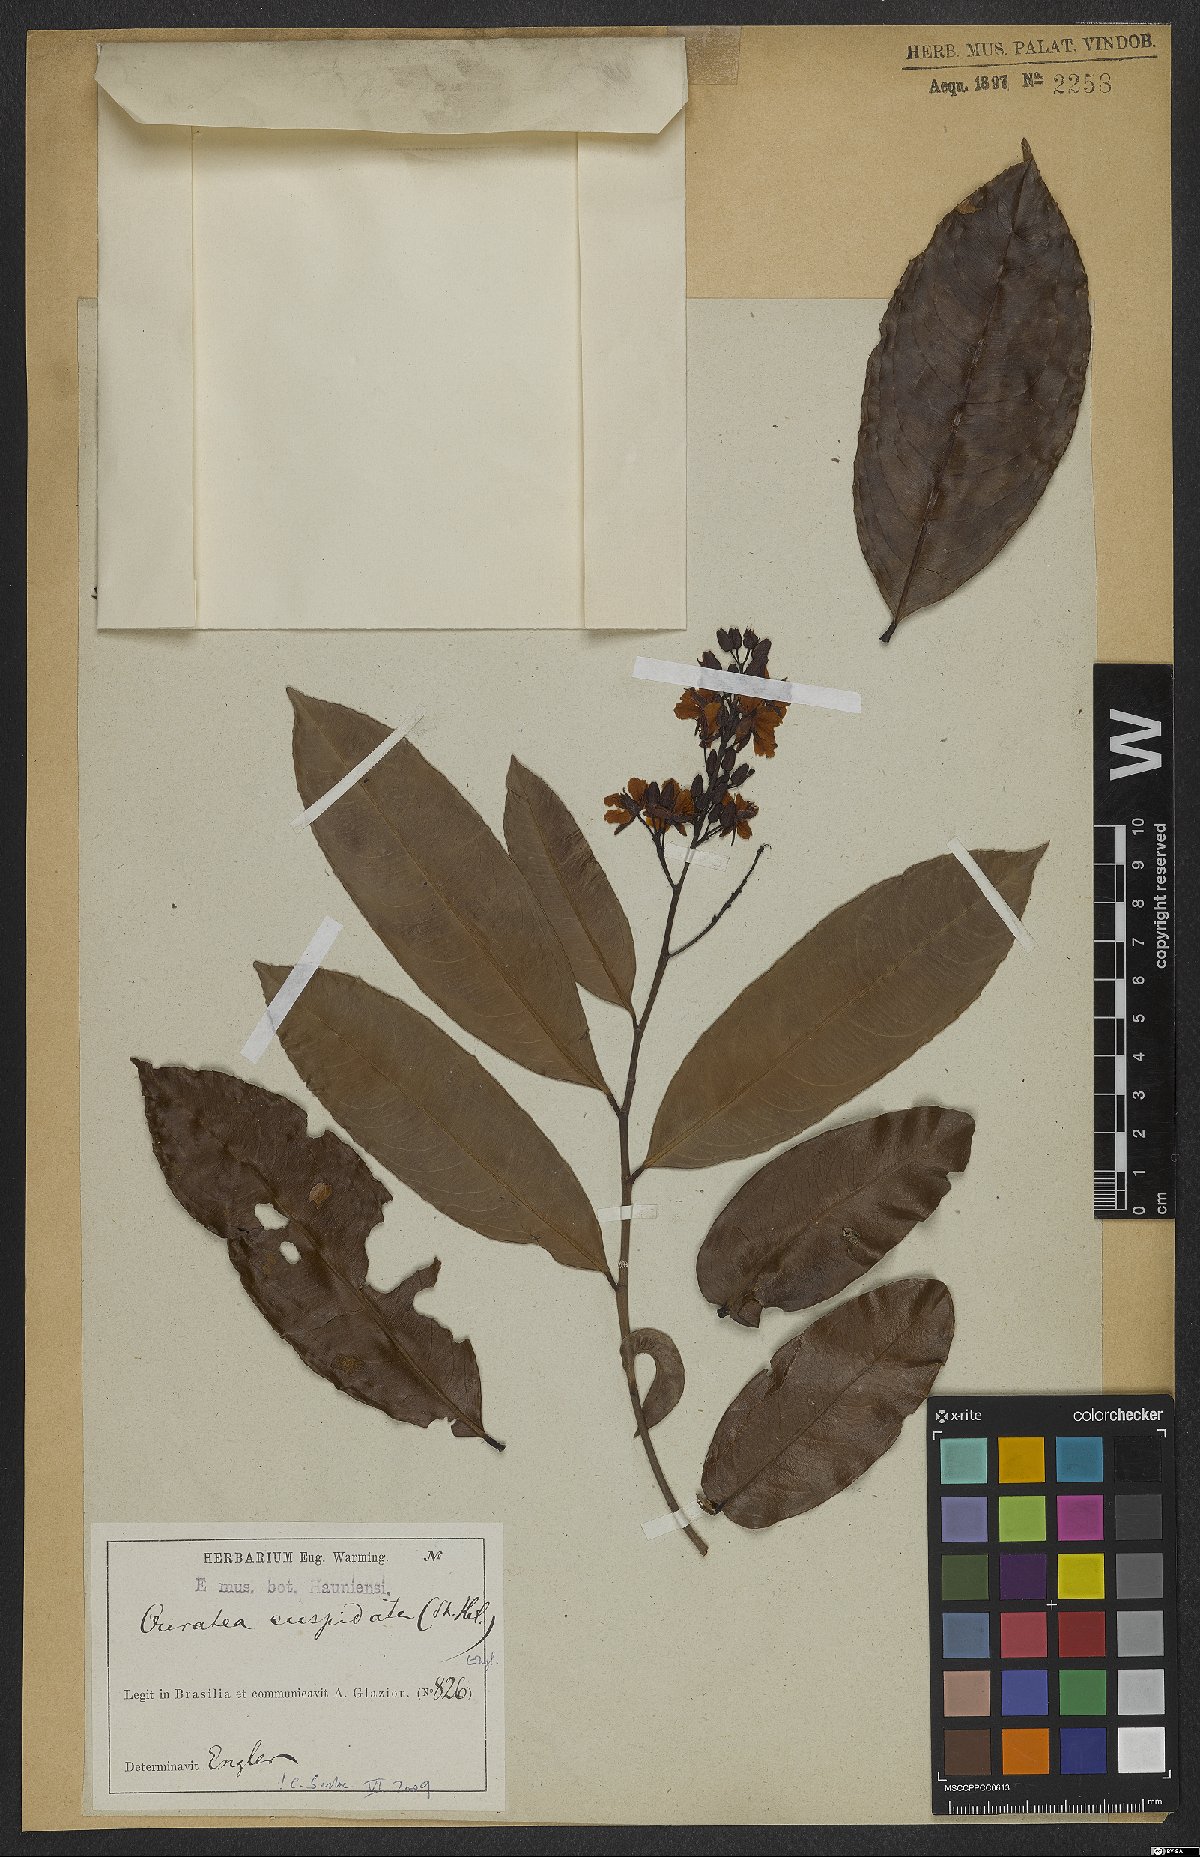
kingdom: Plantae
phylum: Tracheophyta
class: Magnoliopsida
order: Malpighiales
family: Ochnaceae
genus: Ouratea
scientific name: Ouratea cuspidata
